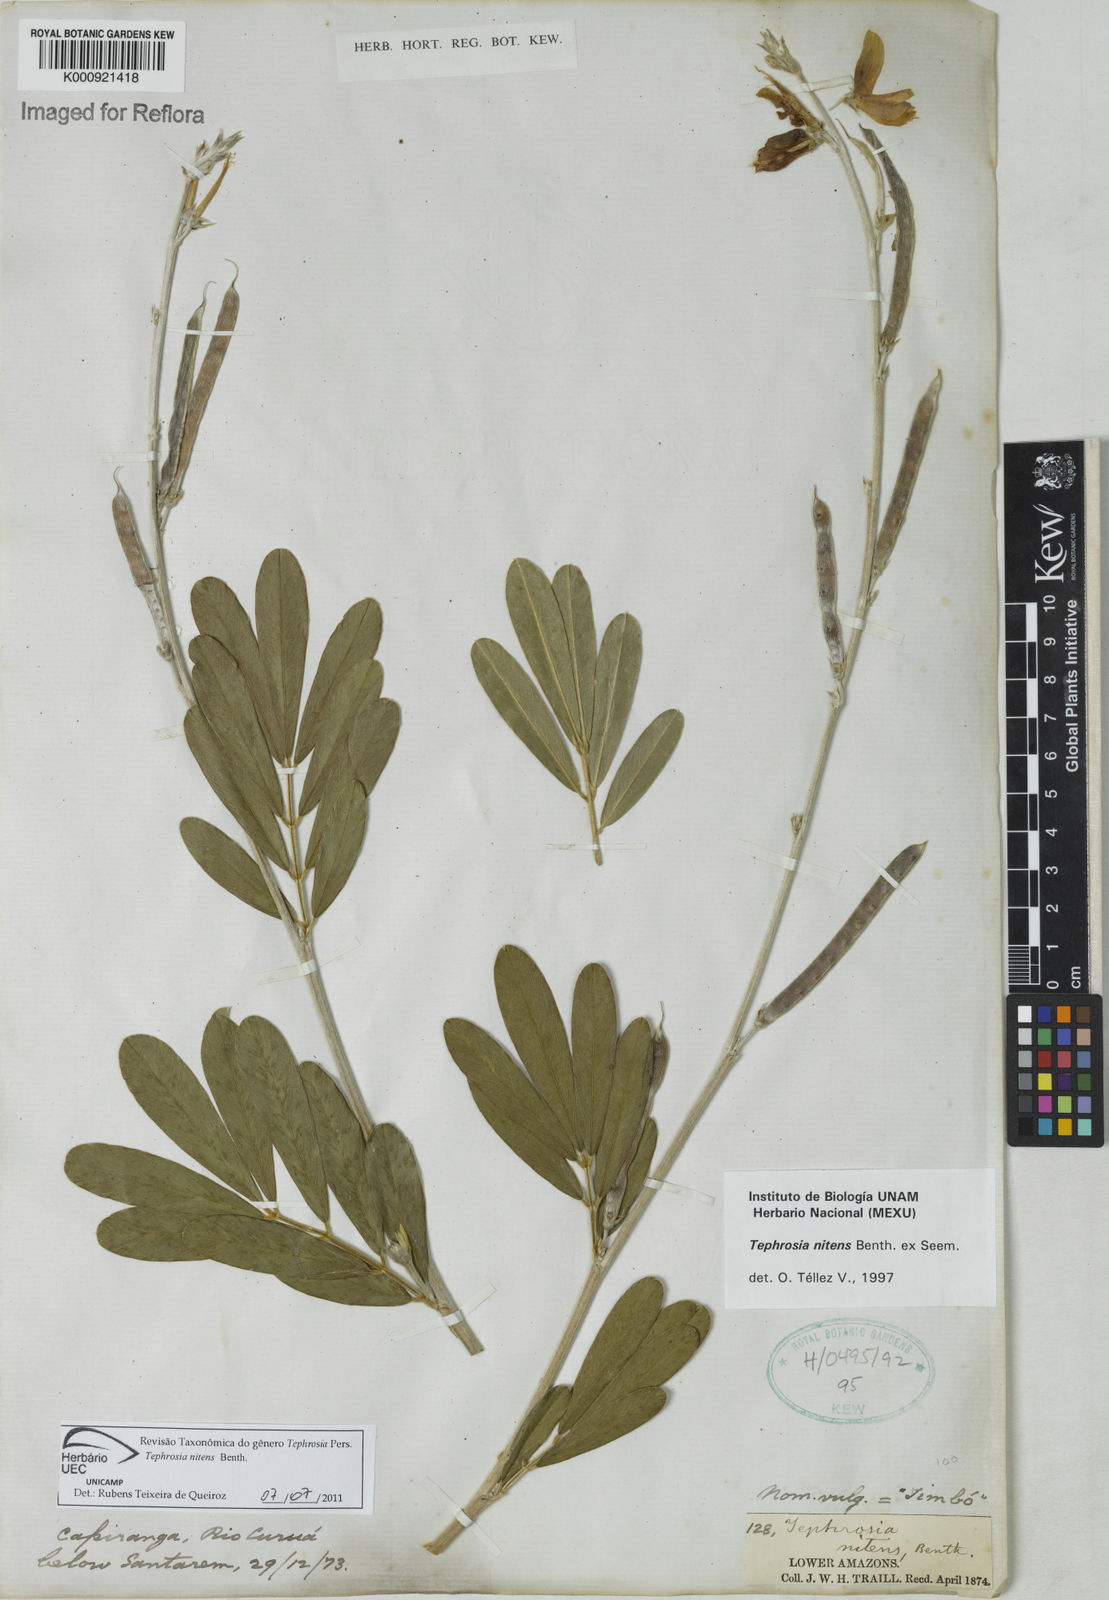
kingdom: Plantae
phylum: Tracheophyta
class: Magnoliopsida
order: Fabales
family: Fabaceae
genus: Tephrosia
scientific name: Tephrosia nitens
